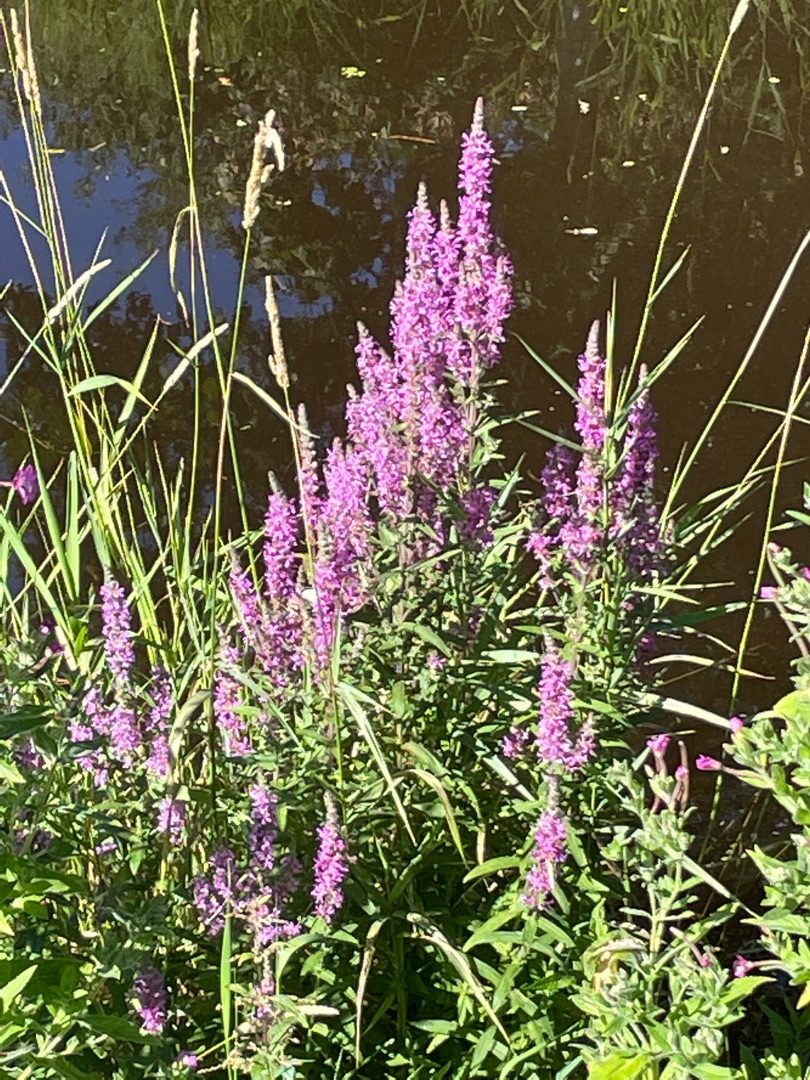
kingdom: Plantae
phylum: Tracheophyta
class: Magnoliopsida
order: Myrtales
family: Lythraceae
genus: Lythrum
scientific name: Lythrum salicaria
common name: Kattehale
